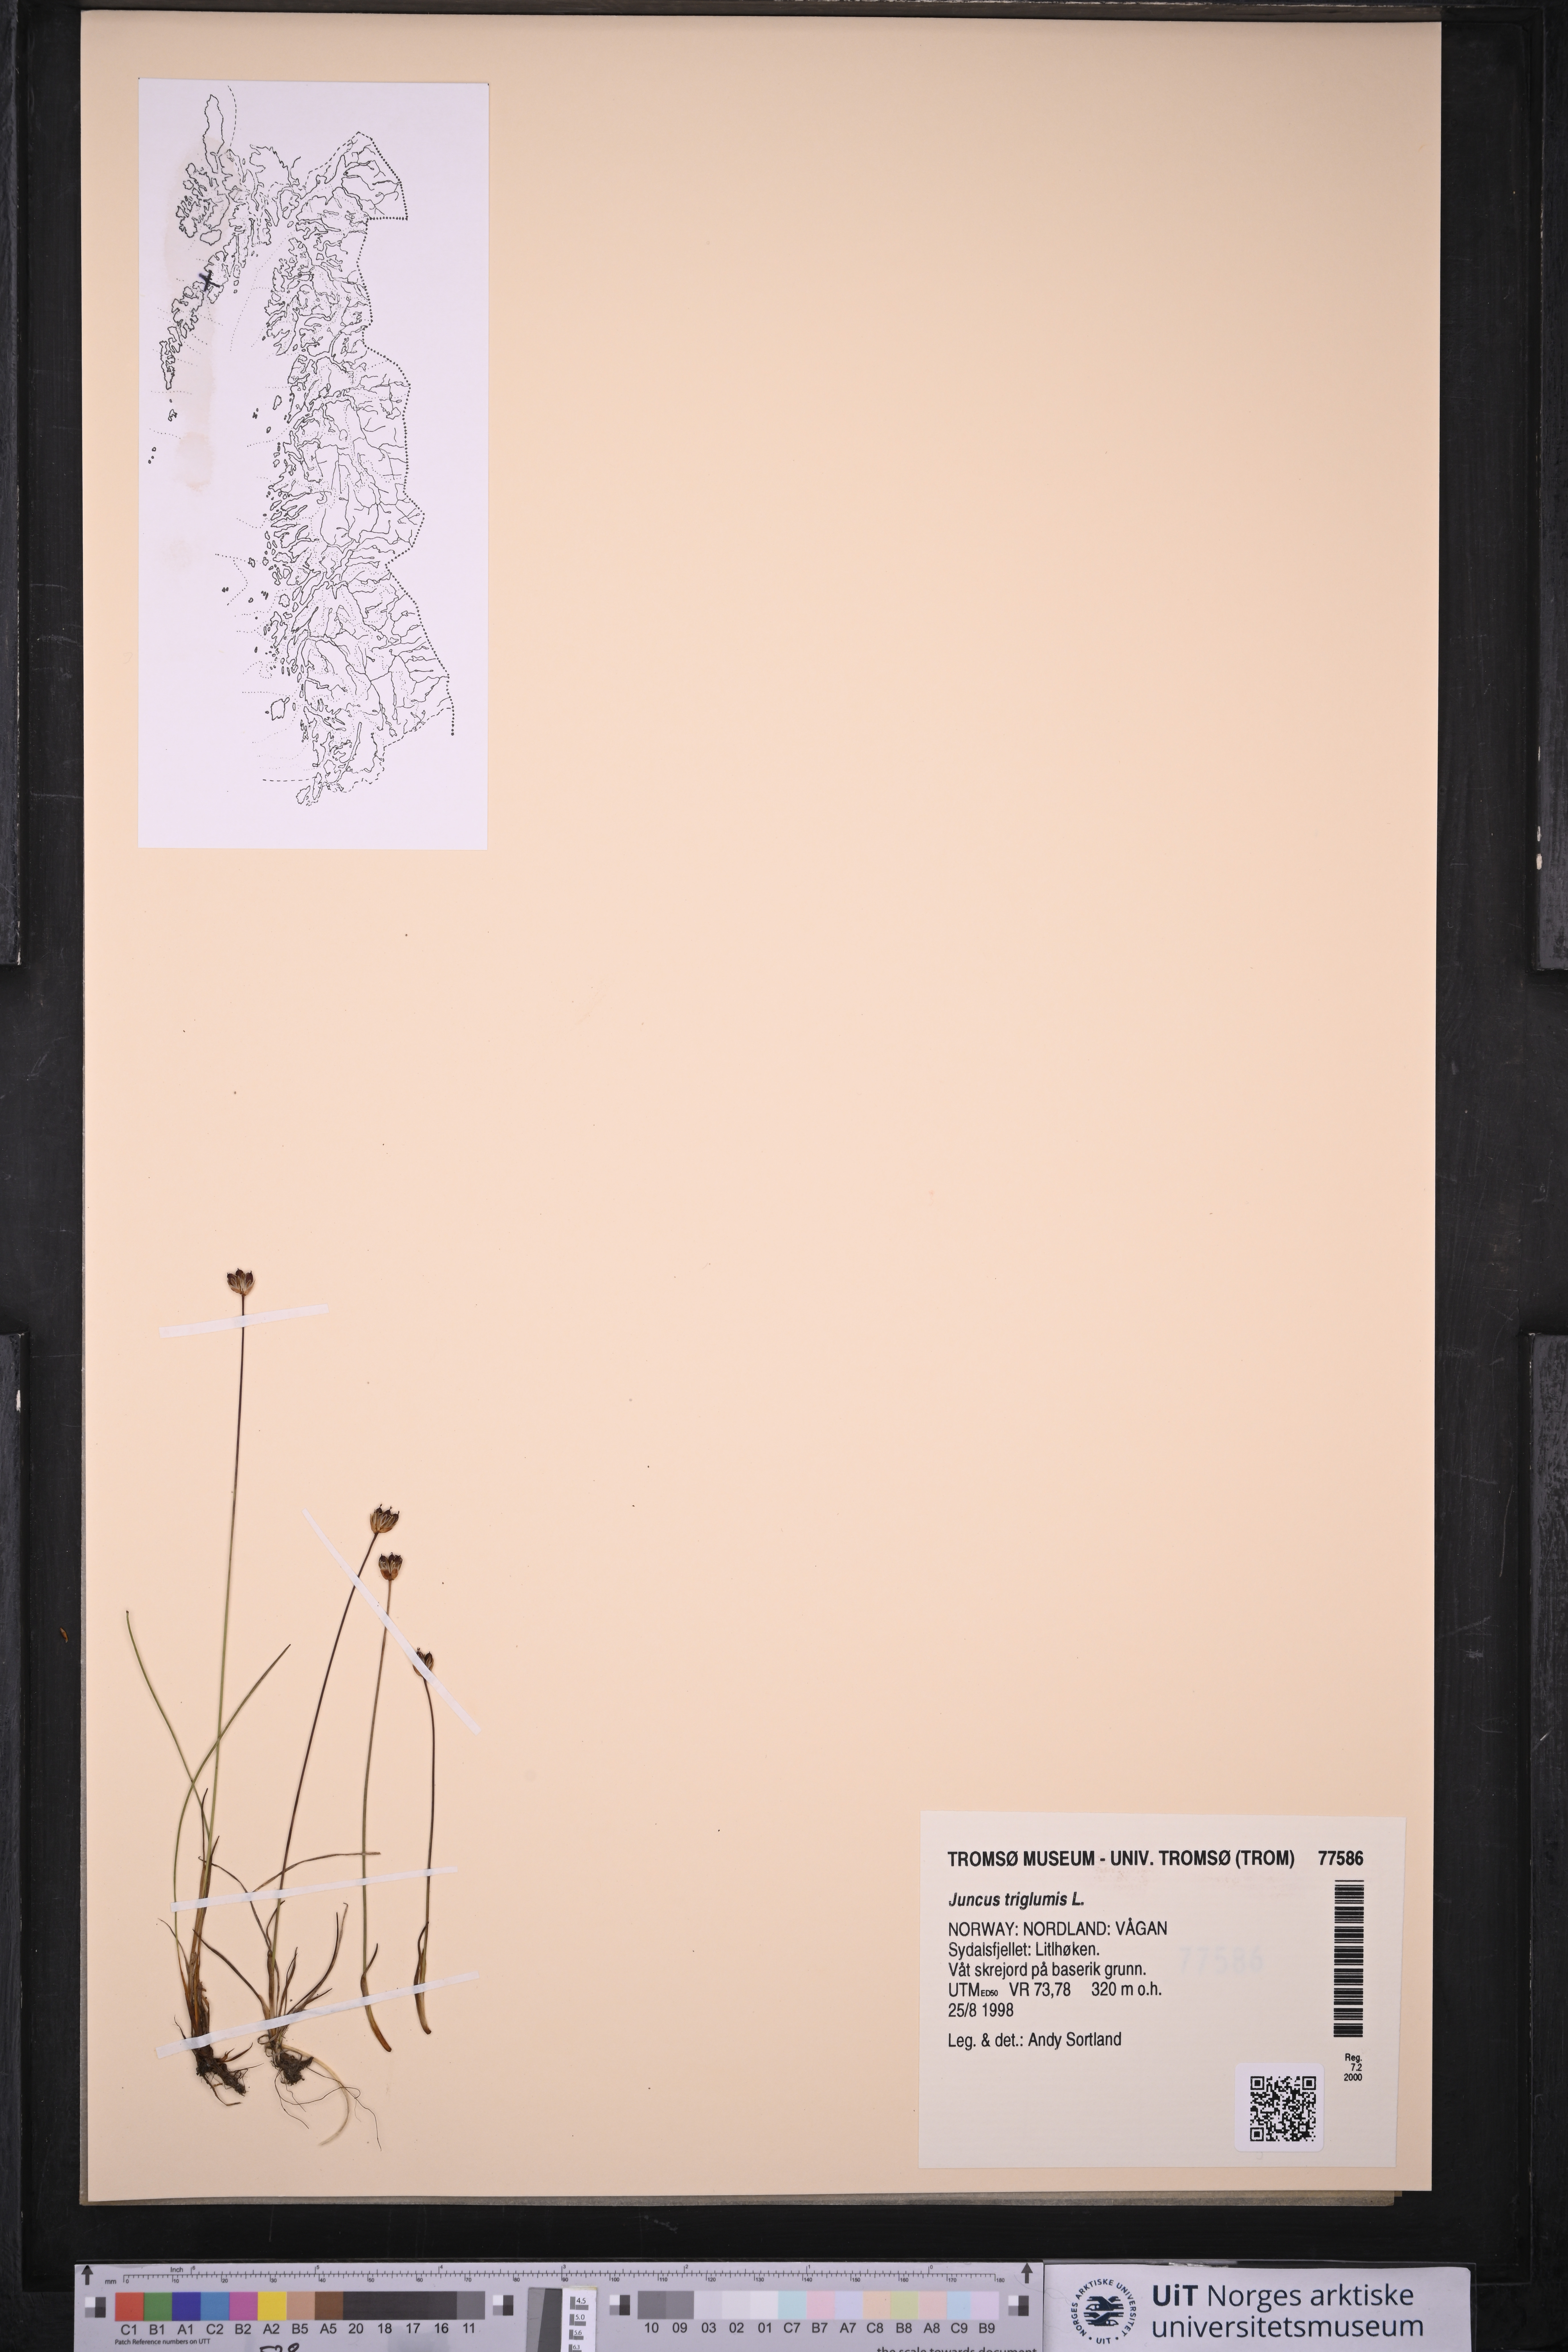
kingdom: Plantae
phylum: Tracheophyta
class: Liliopsida
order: Poales
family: Juncaceae
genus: Juncus
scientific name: Juncus triglumis
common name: Three-flowered rush
